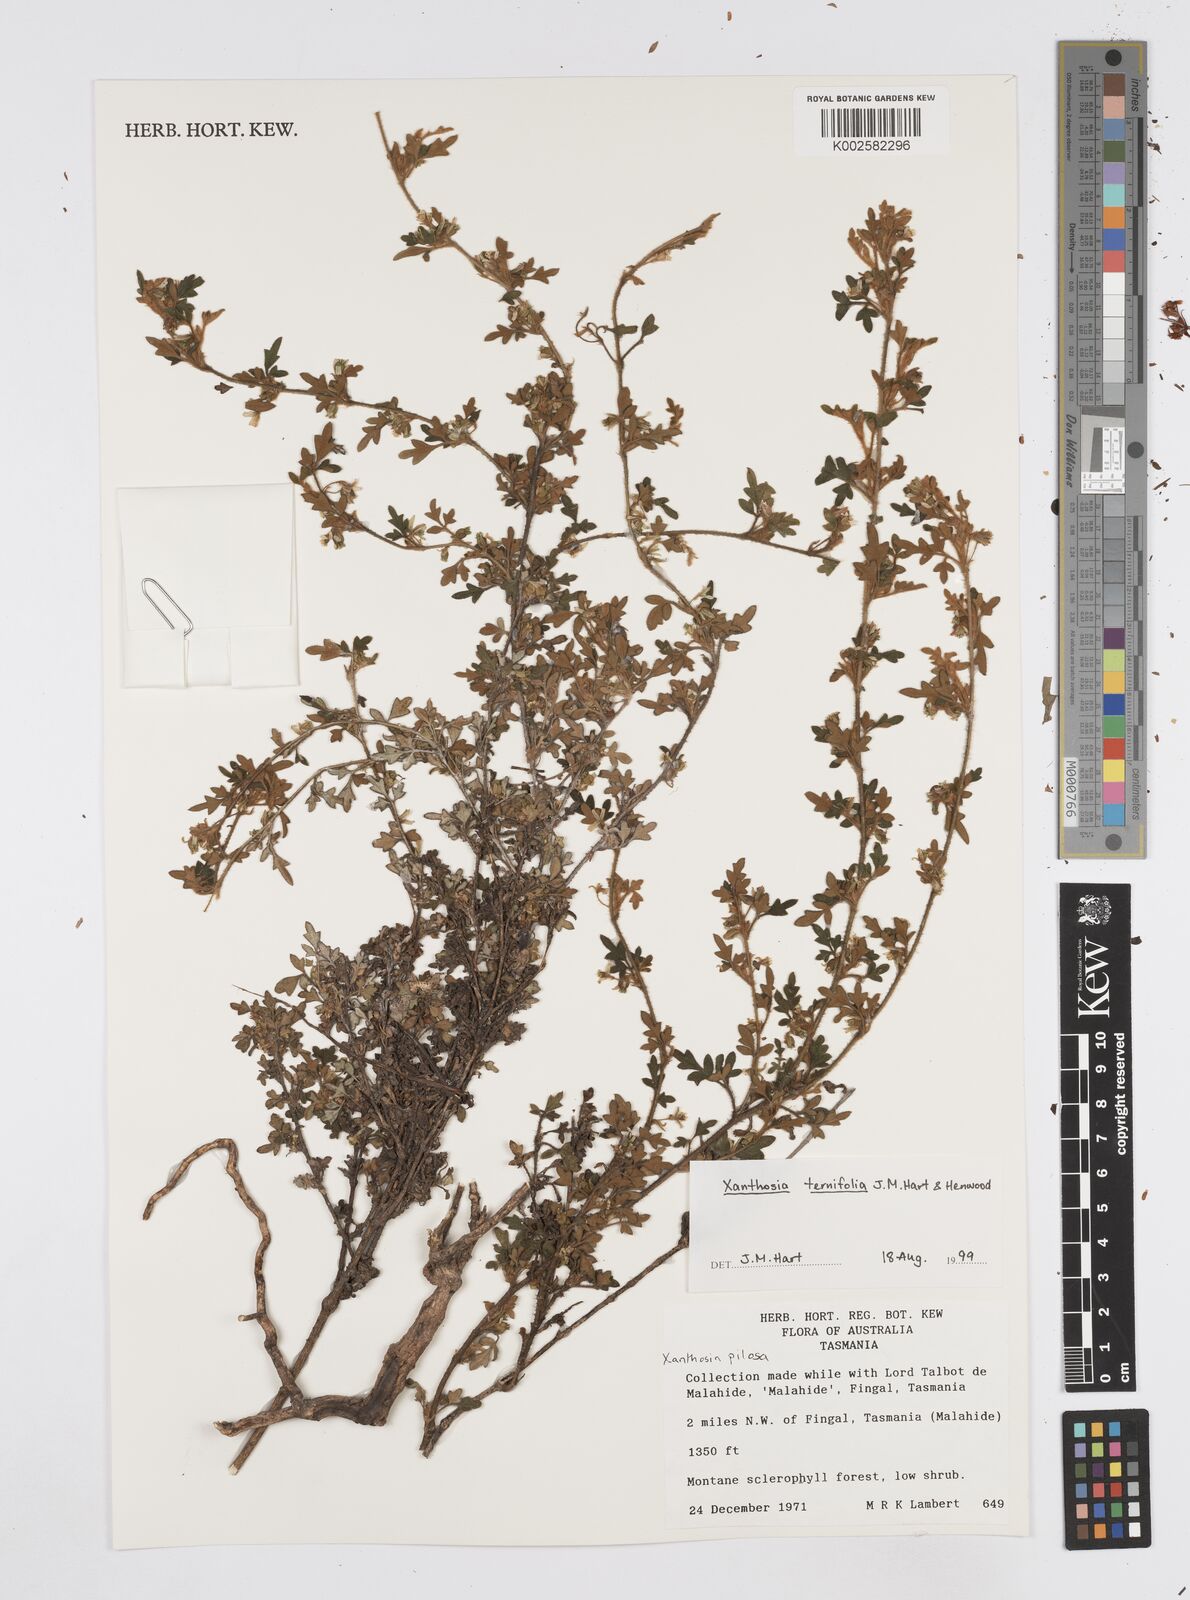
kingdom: Plantae
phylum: Tracheophyta
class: Magnoliopsida
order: Apiales
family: Apiaceae
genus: Xanthosia
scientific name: Xanthosia ternifolia
